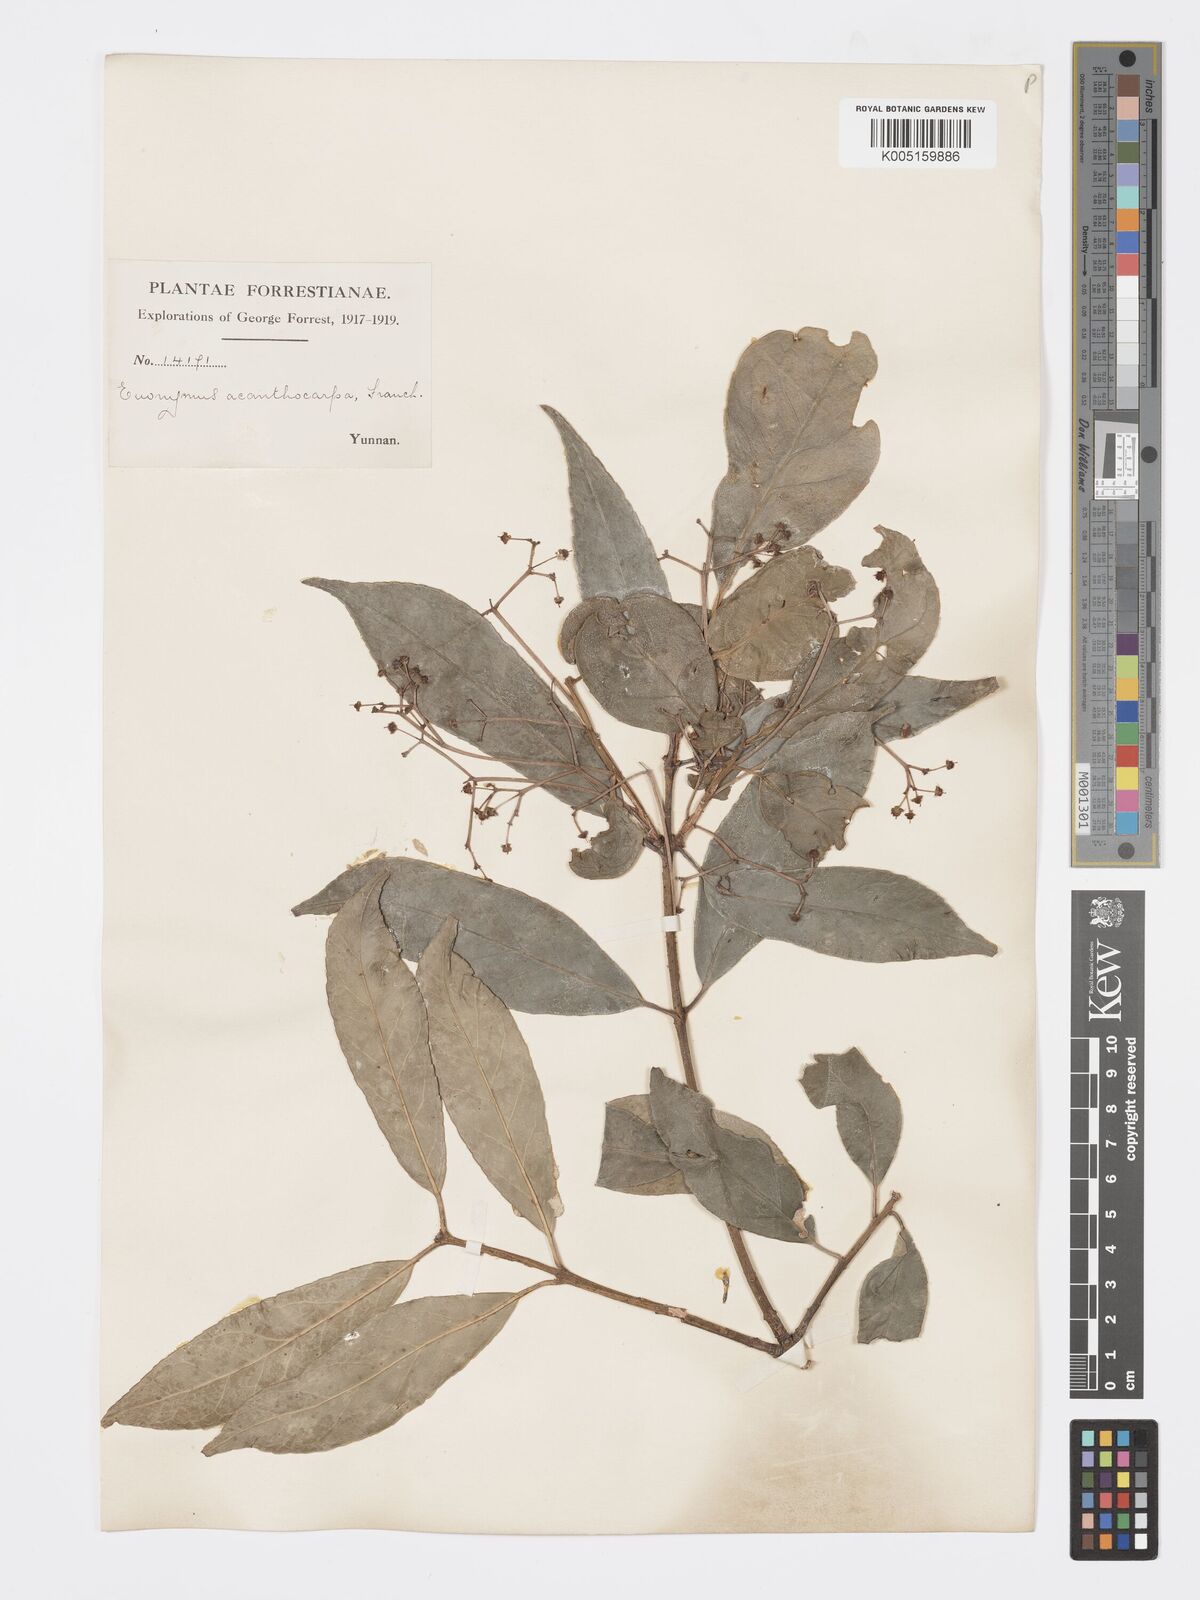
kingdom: Plantae
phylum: Tracheophyta
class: Magnoliopsida
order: Celastrales
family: Celastraceae
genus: Euonymus
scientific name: Euonymus acanthocarpus
